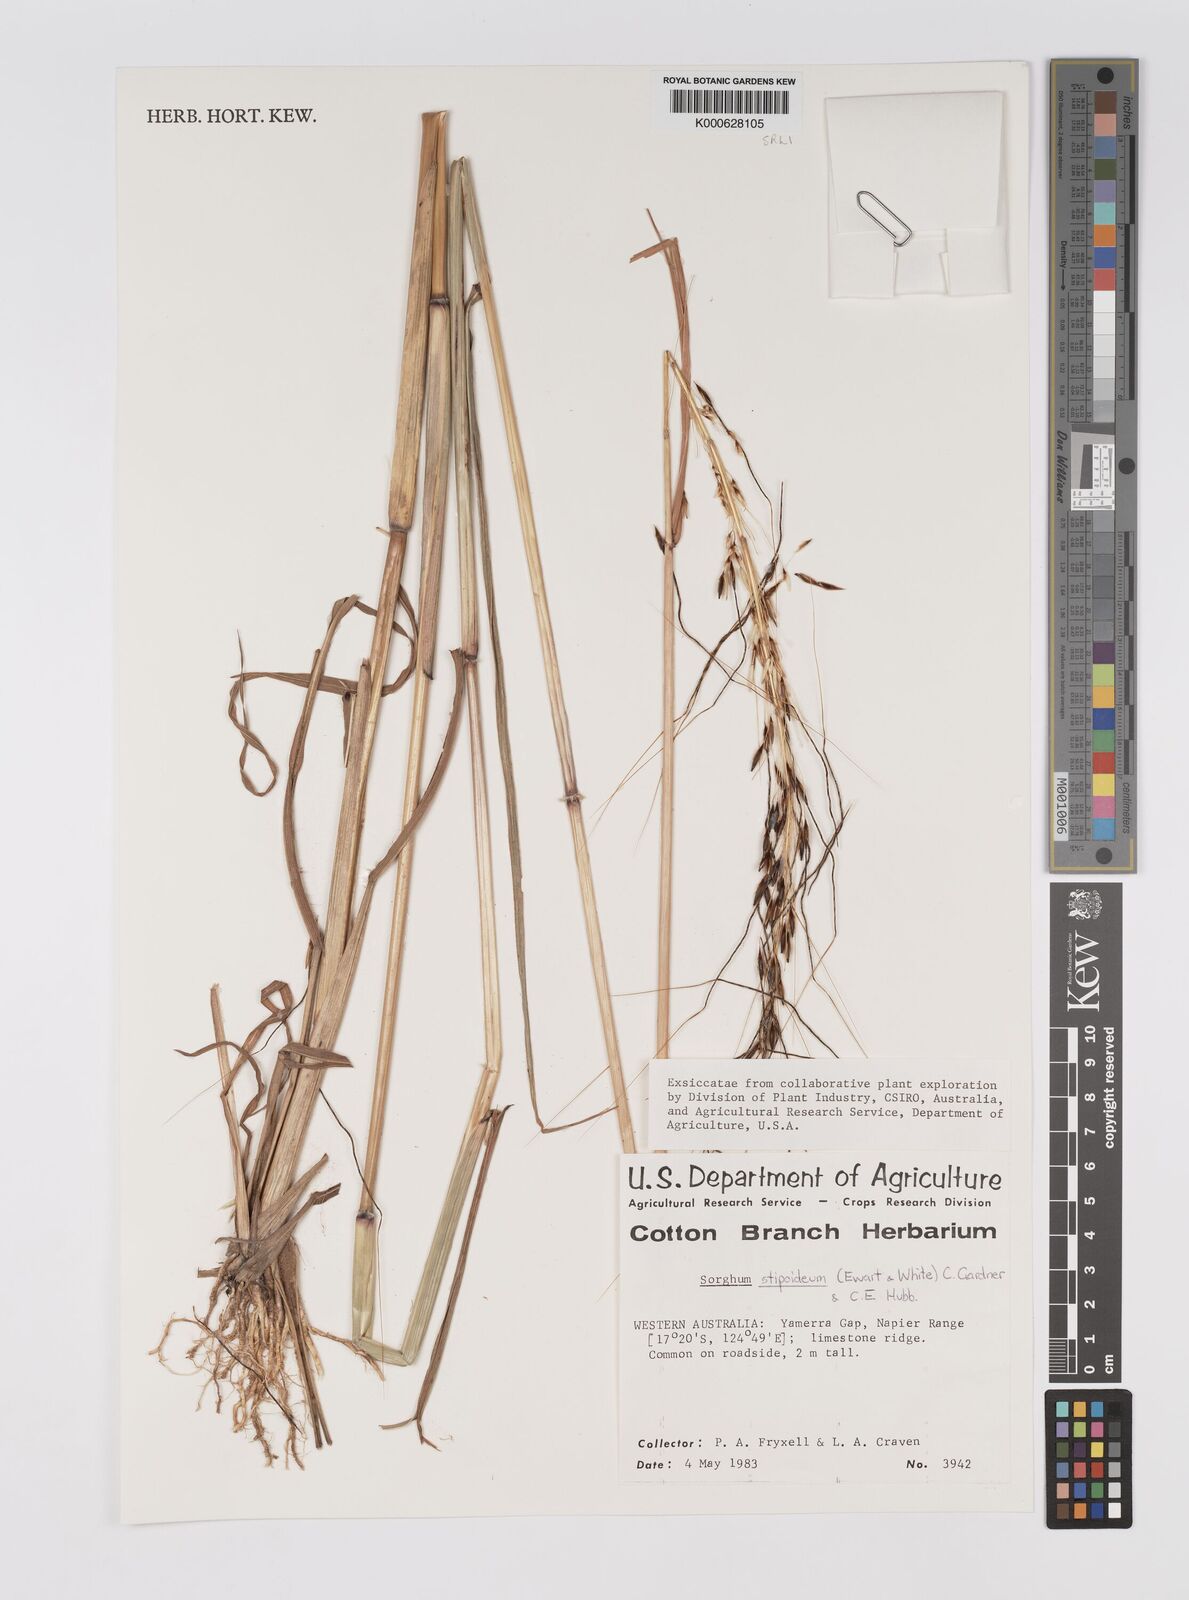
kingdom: Plantae
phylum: Tracheophyta
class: Liliopsida
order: Poales
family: Poaceae
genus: Sarga
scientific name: Sarga stipoidea
